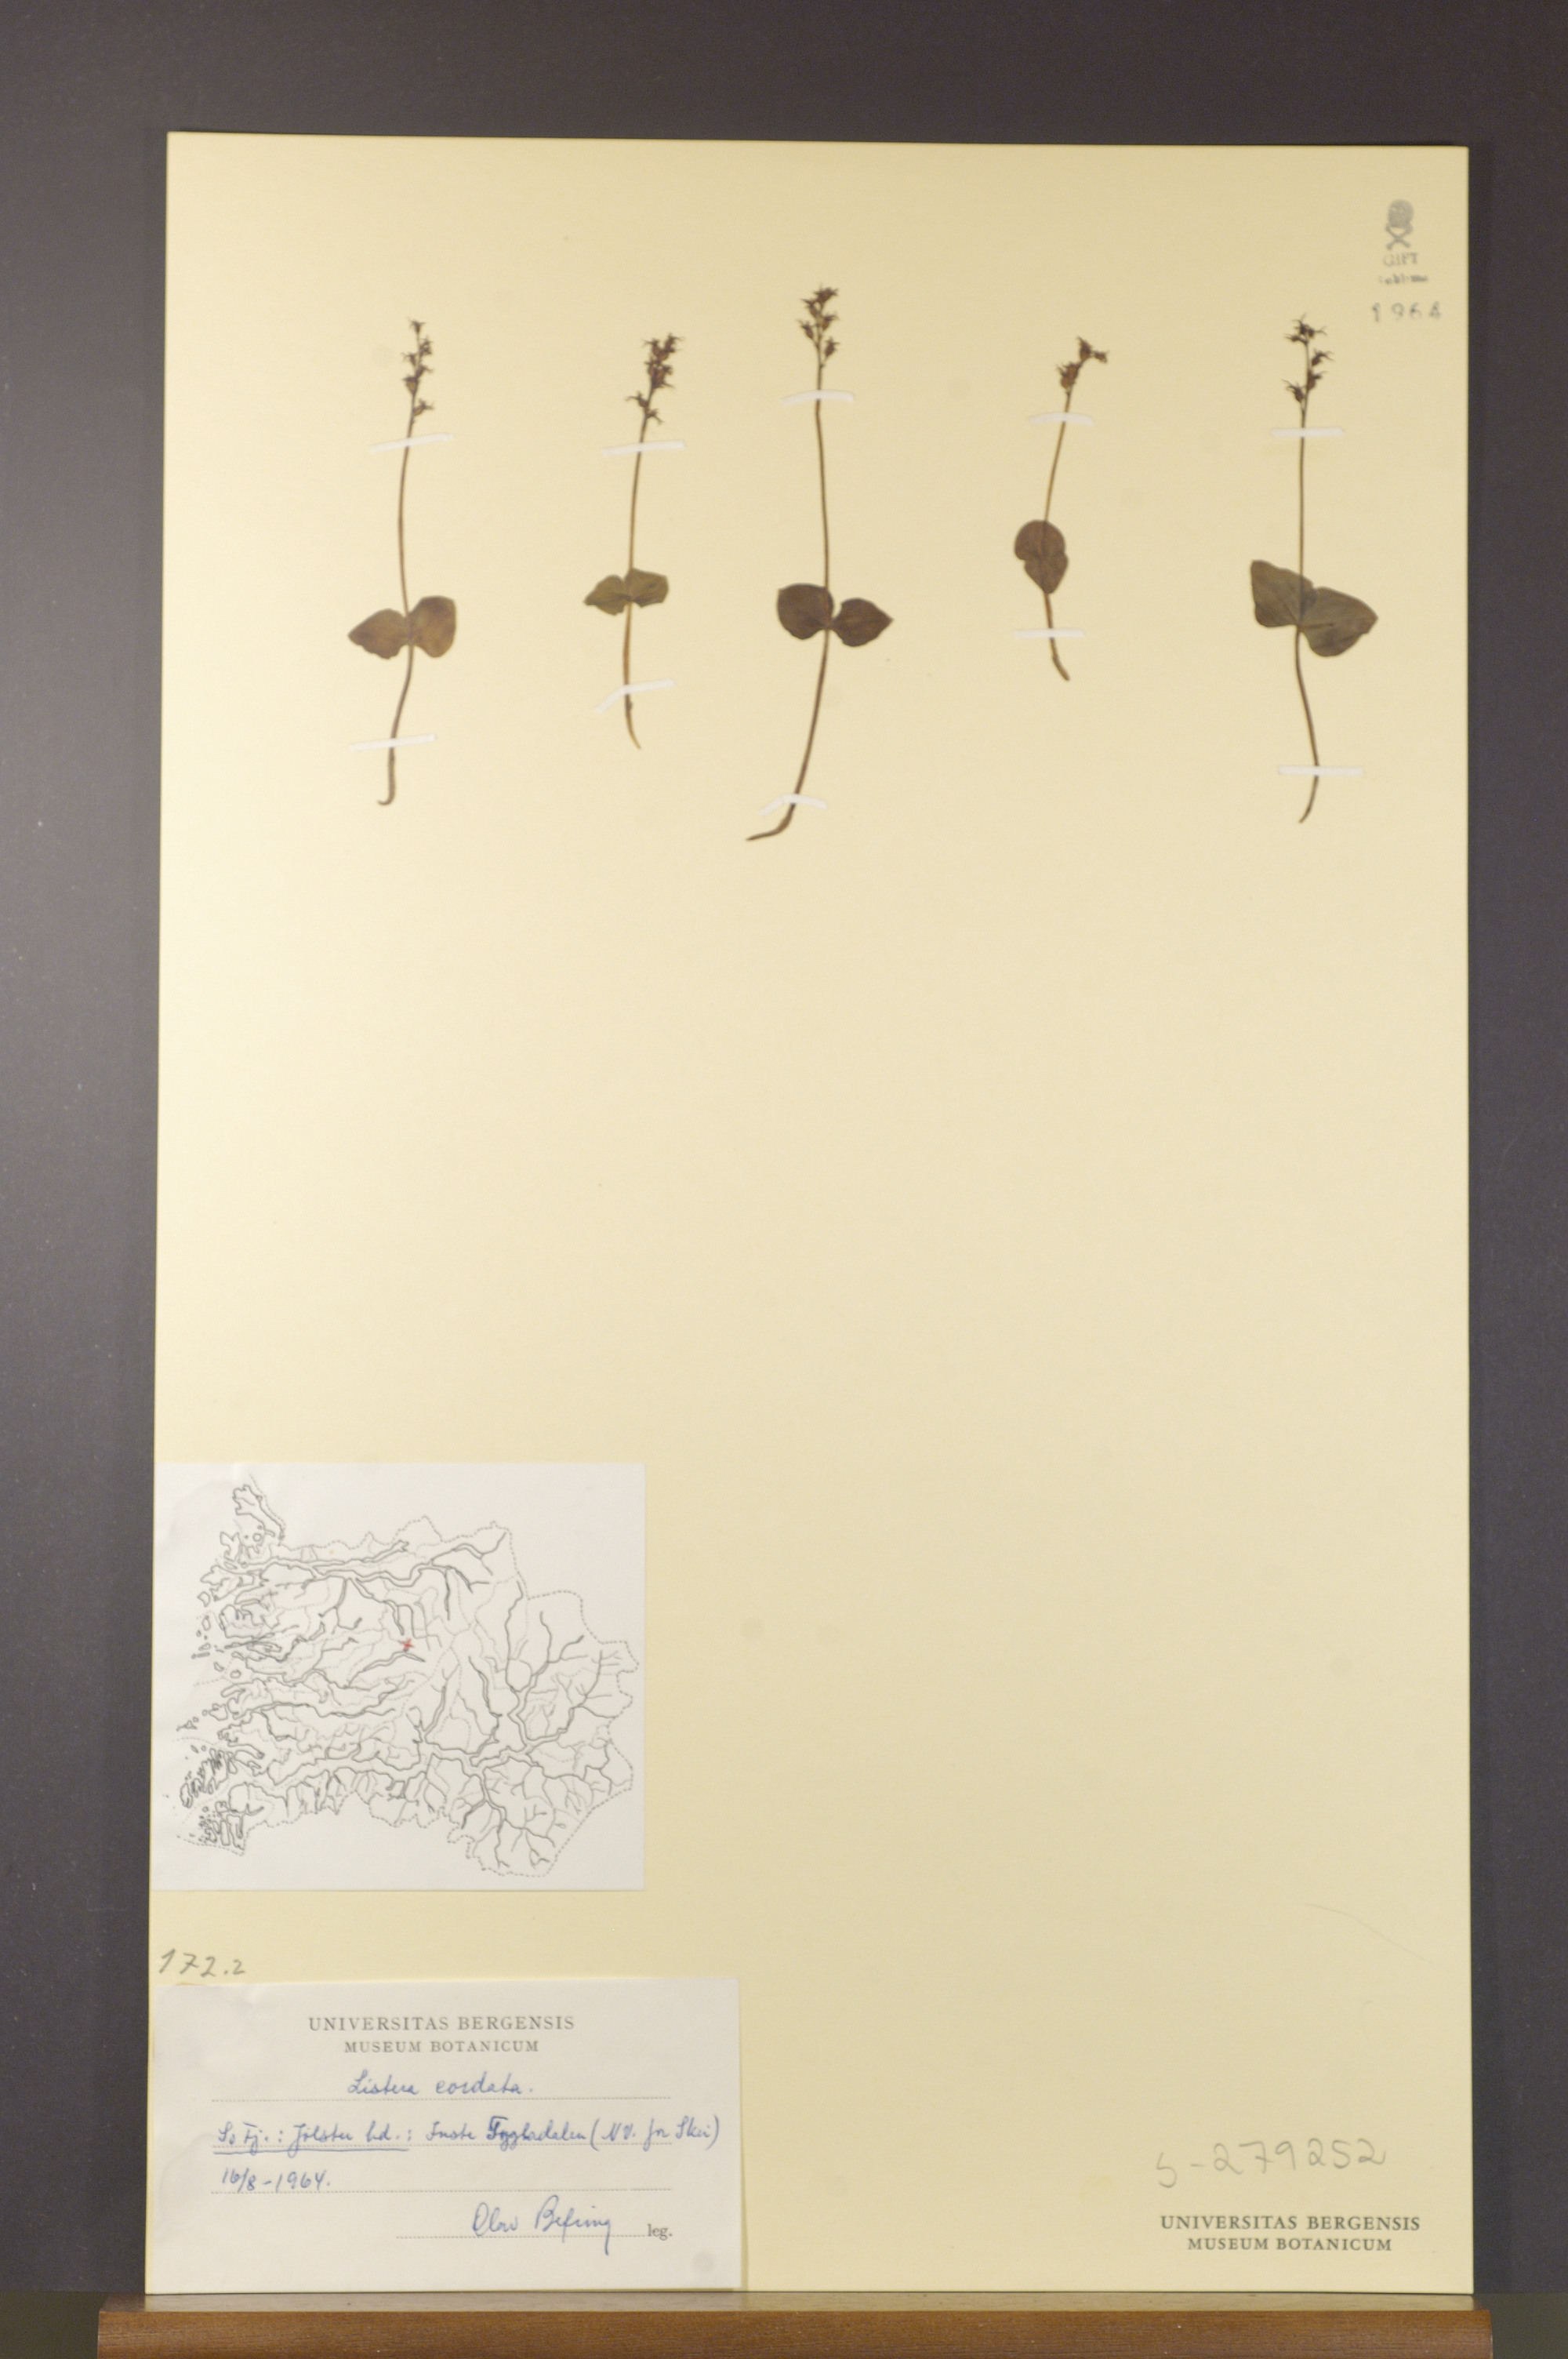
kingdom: Plantae
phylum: Tracheophyta
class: Liliopsida
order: Asparagales
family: Orchidaceae
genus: Neottia
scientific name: Neottia cordata
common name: Lesser twayblade
